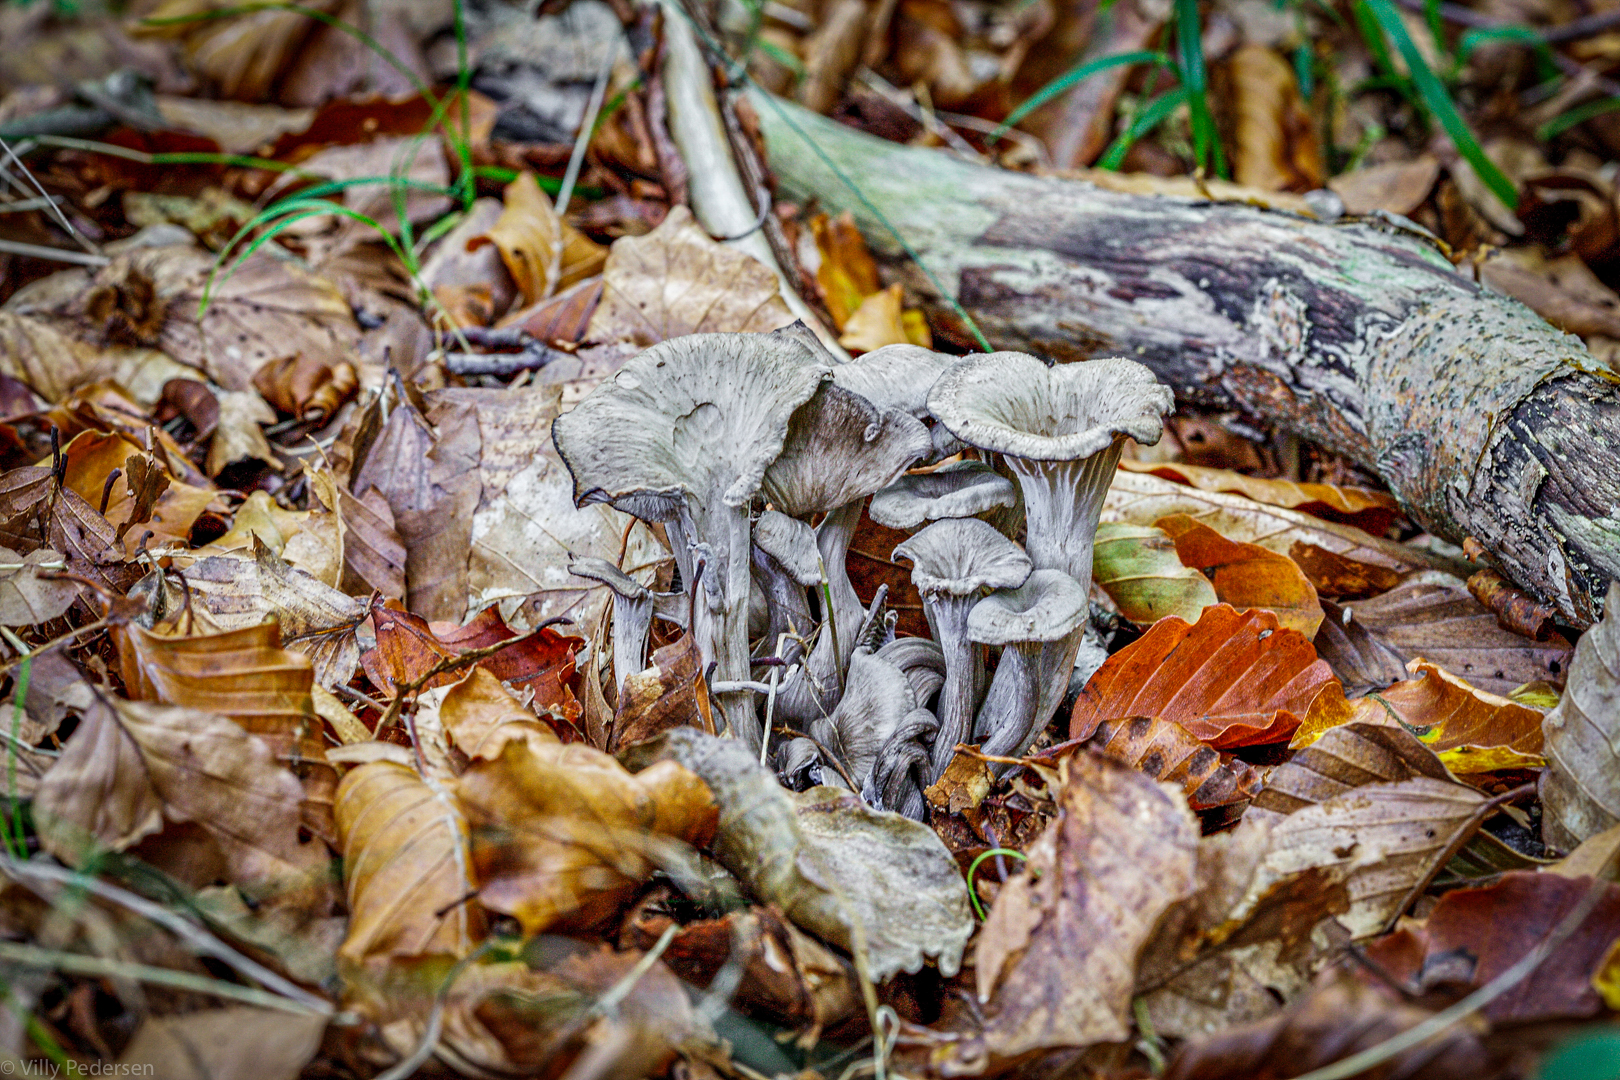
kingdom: Fungi
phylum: Basidiomycota
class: Agaricomycetes
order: Cantharellales
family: Hydnaceae
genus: Cantharellus
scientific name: Cantharellus cinereus
